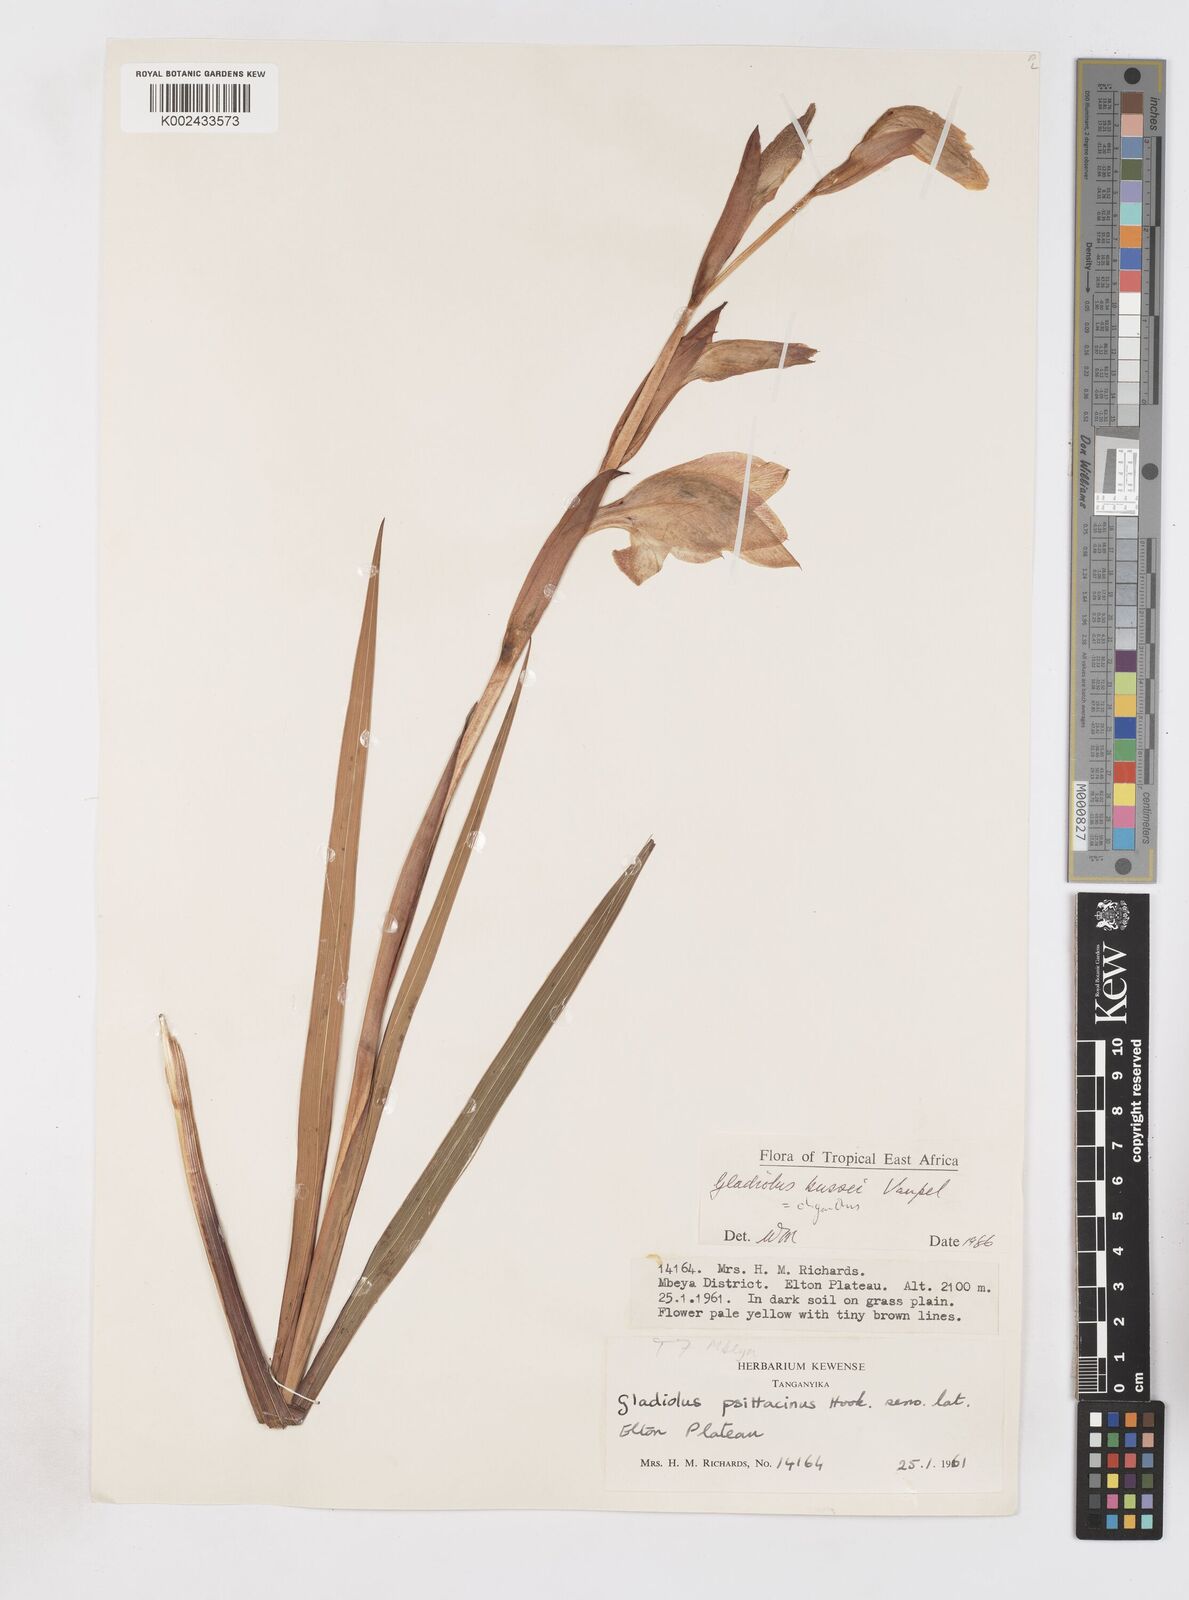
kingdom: Plantae
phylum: Tracheophyta
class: Liliopsida
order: Asparagales
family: Iridaceae
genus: Gladiolus
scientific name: Gladiolus oliganthus
